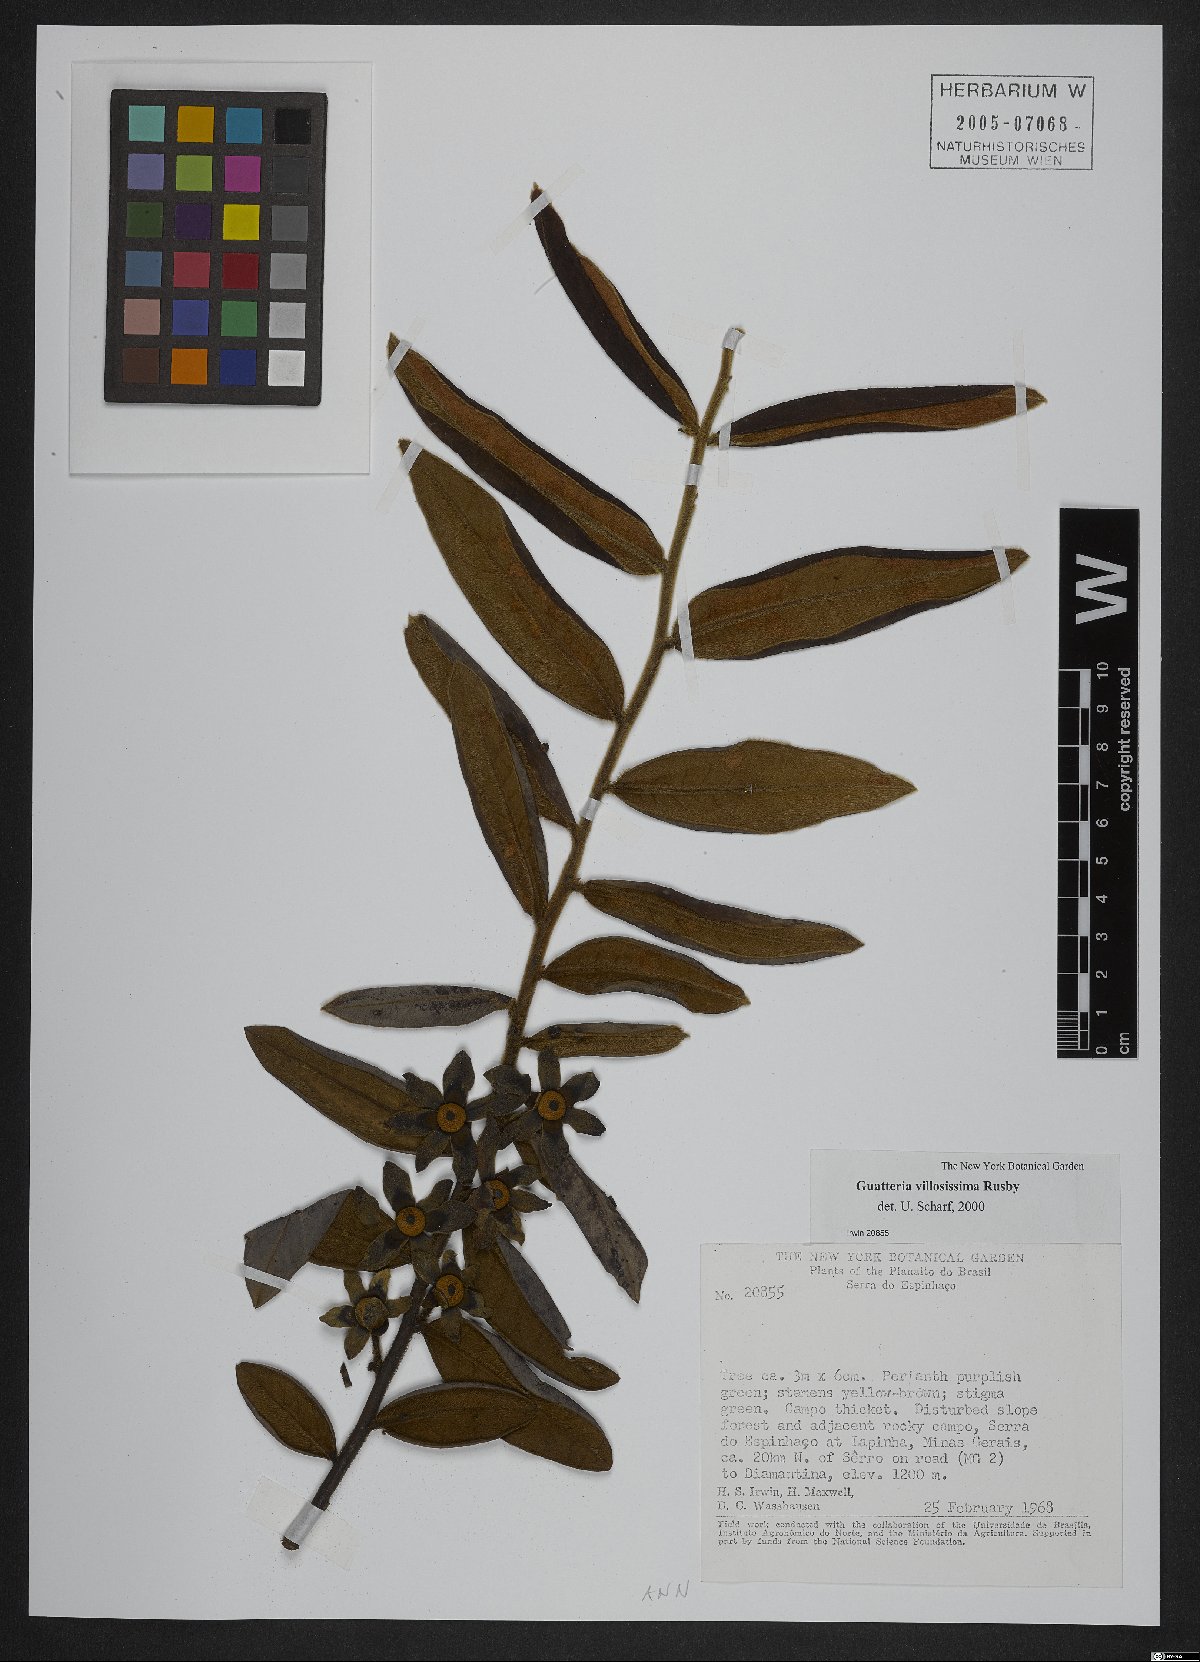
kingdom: Plantae
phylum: Tracheophyta
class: Magnoliopsida
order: Magnoliales
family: Annonaceae
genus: Guatteria
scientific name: Guatteria villosissima
